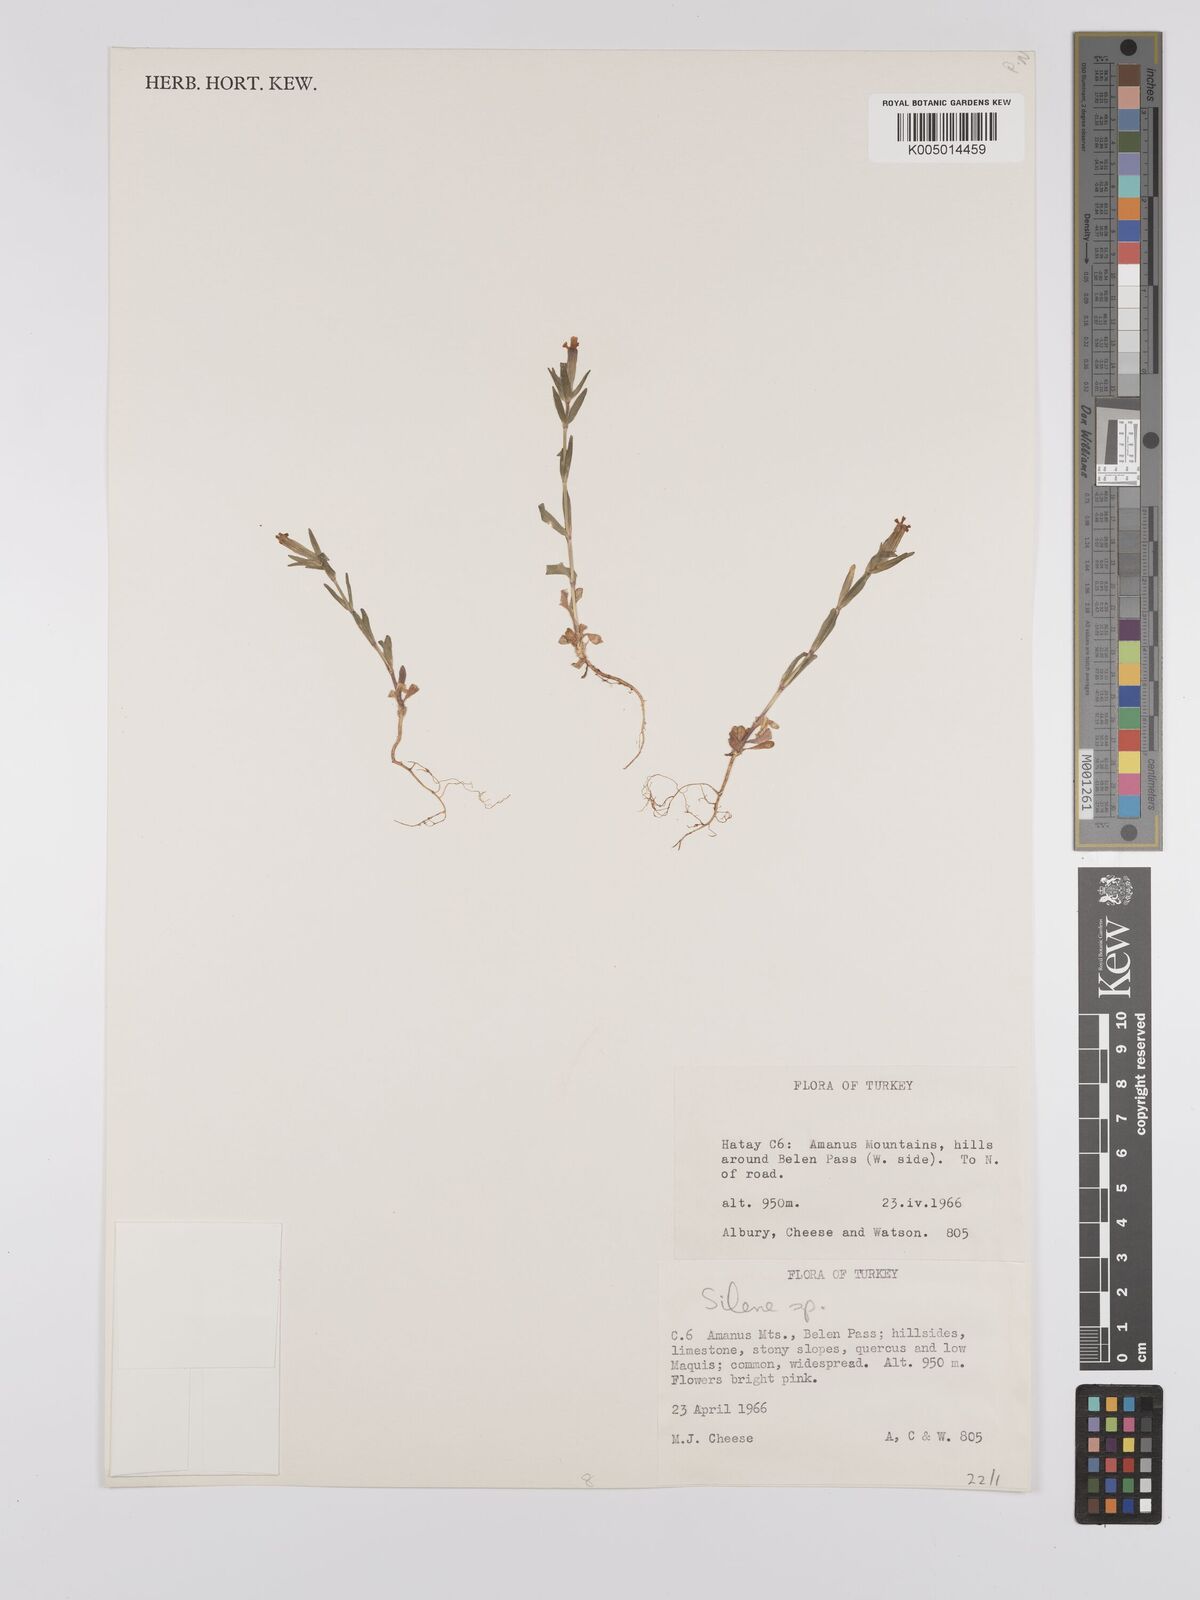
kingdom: Plantae
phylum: Tracheophyta
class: Magnoliopsida
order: Caryophyllales
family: Caryophyllaceae
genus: Silene
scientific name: Silene
